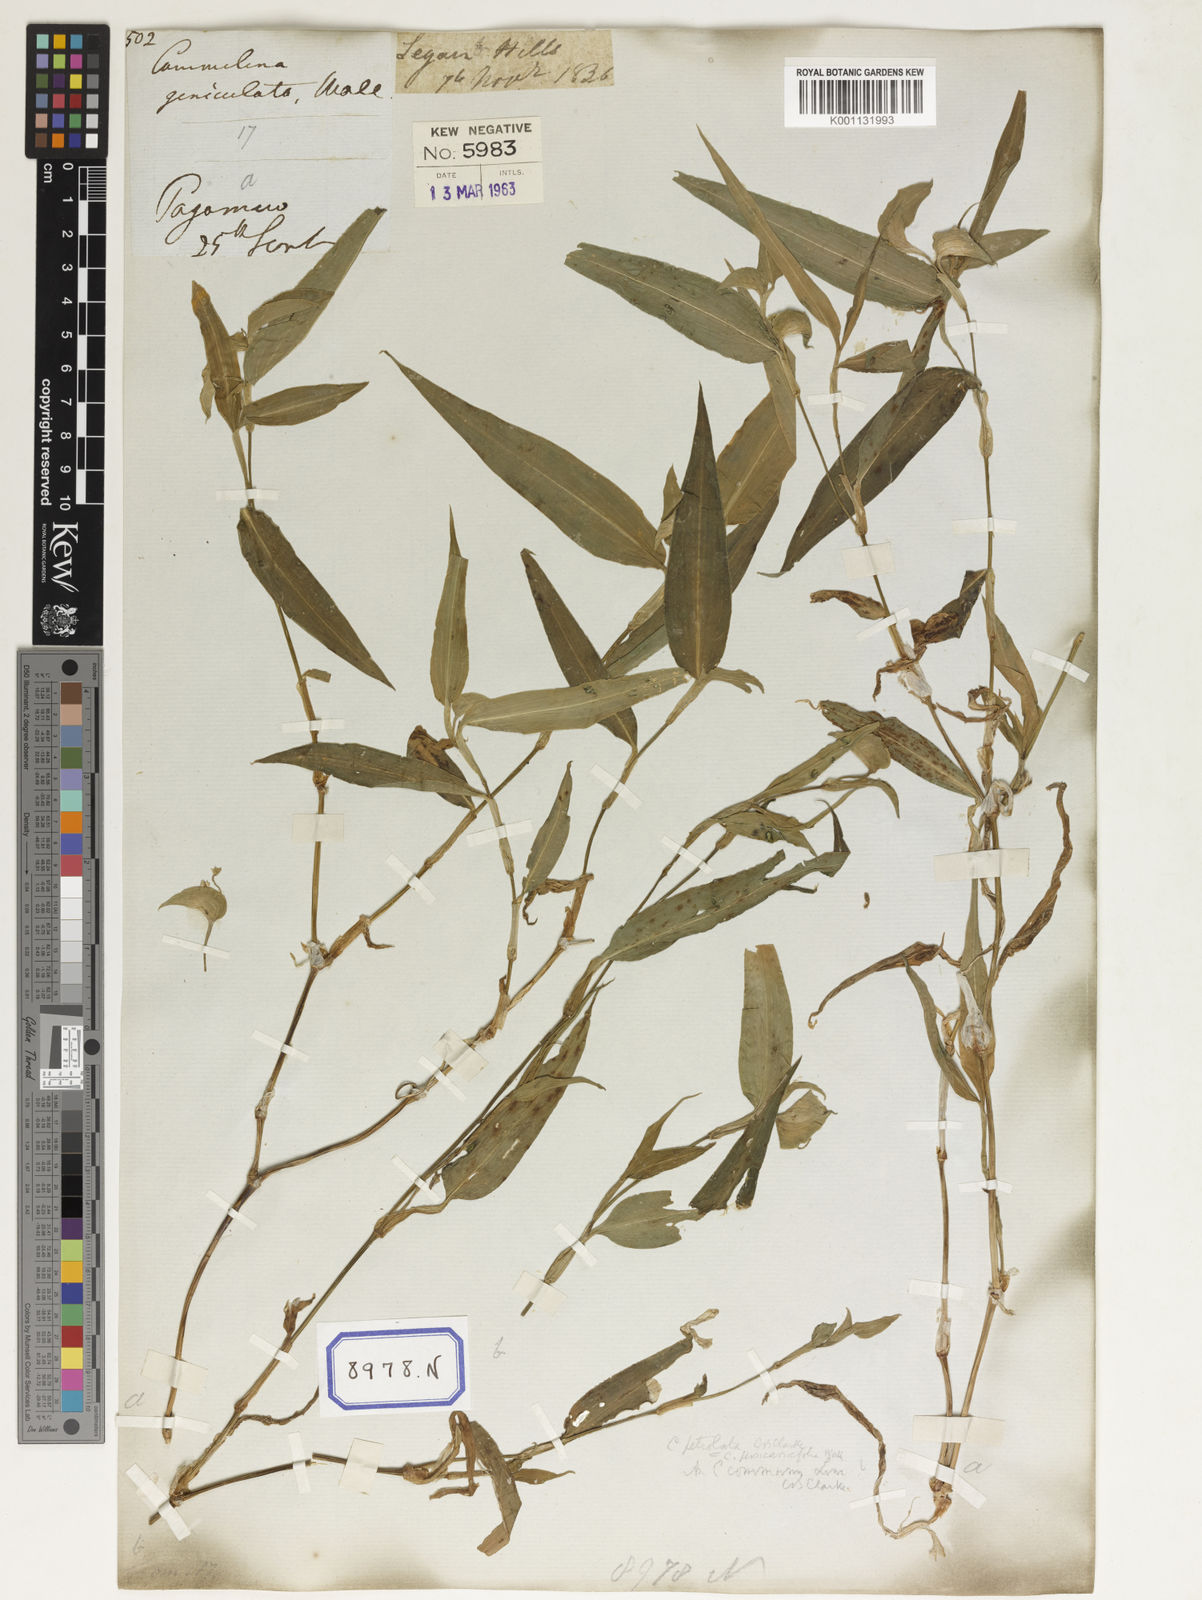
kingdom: Plantae
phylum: Tracheophyta
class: Liliopsida
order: Commelinales
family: Commelinaceae
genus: Commelina
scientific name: Commelina communis
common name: Asiatic dayflower
